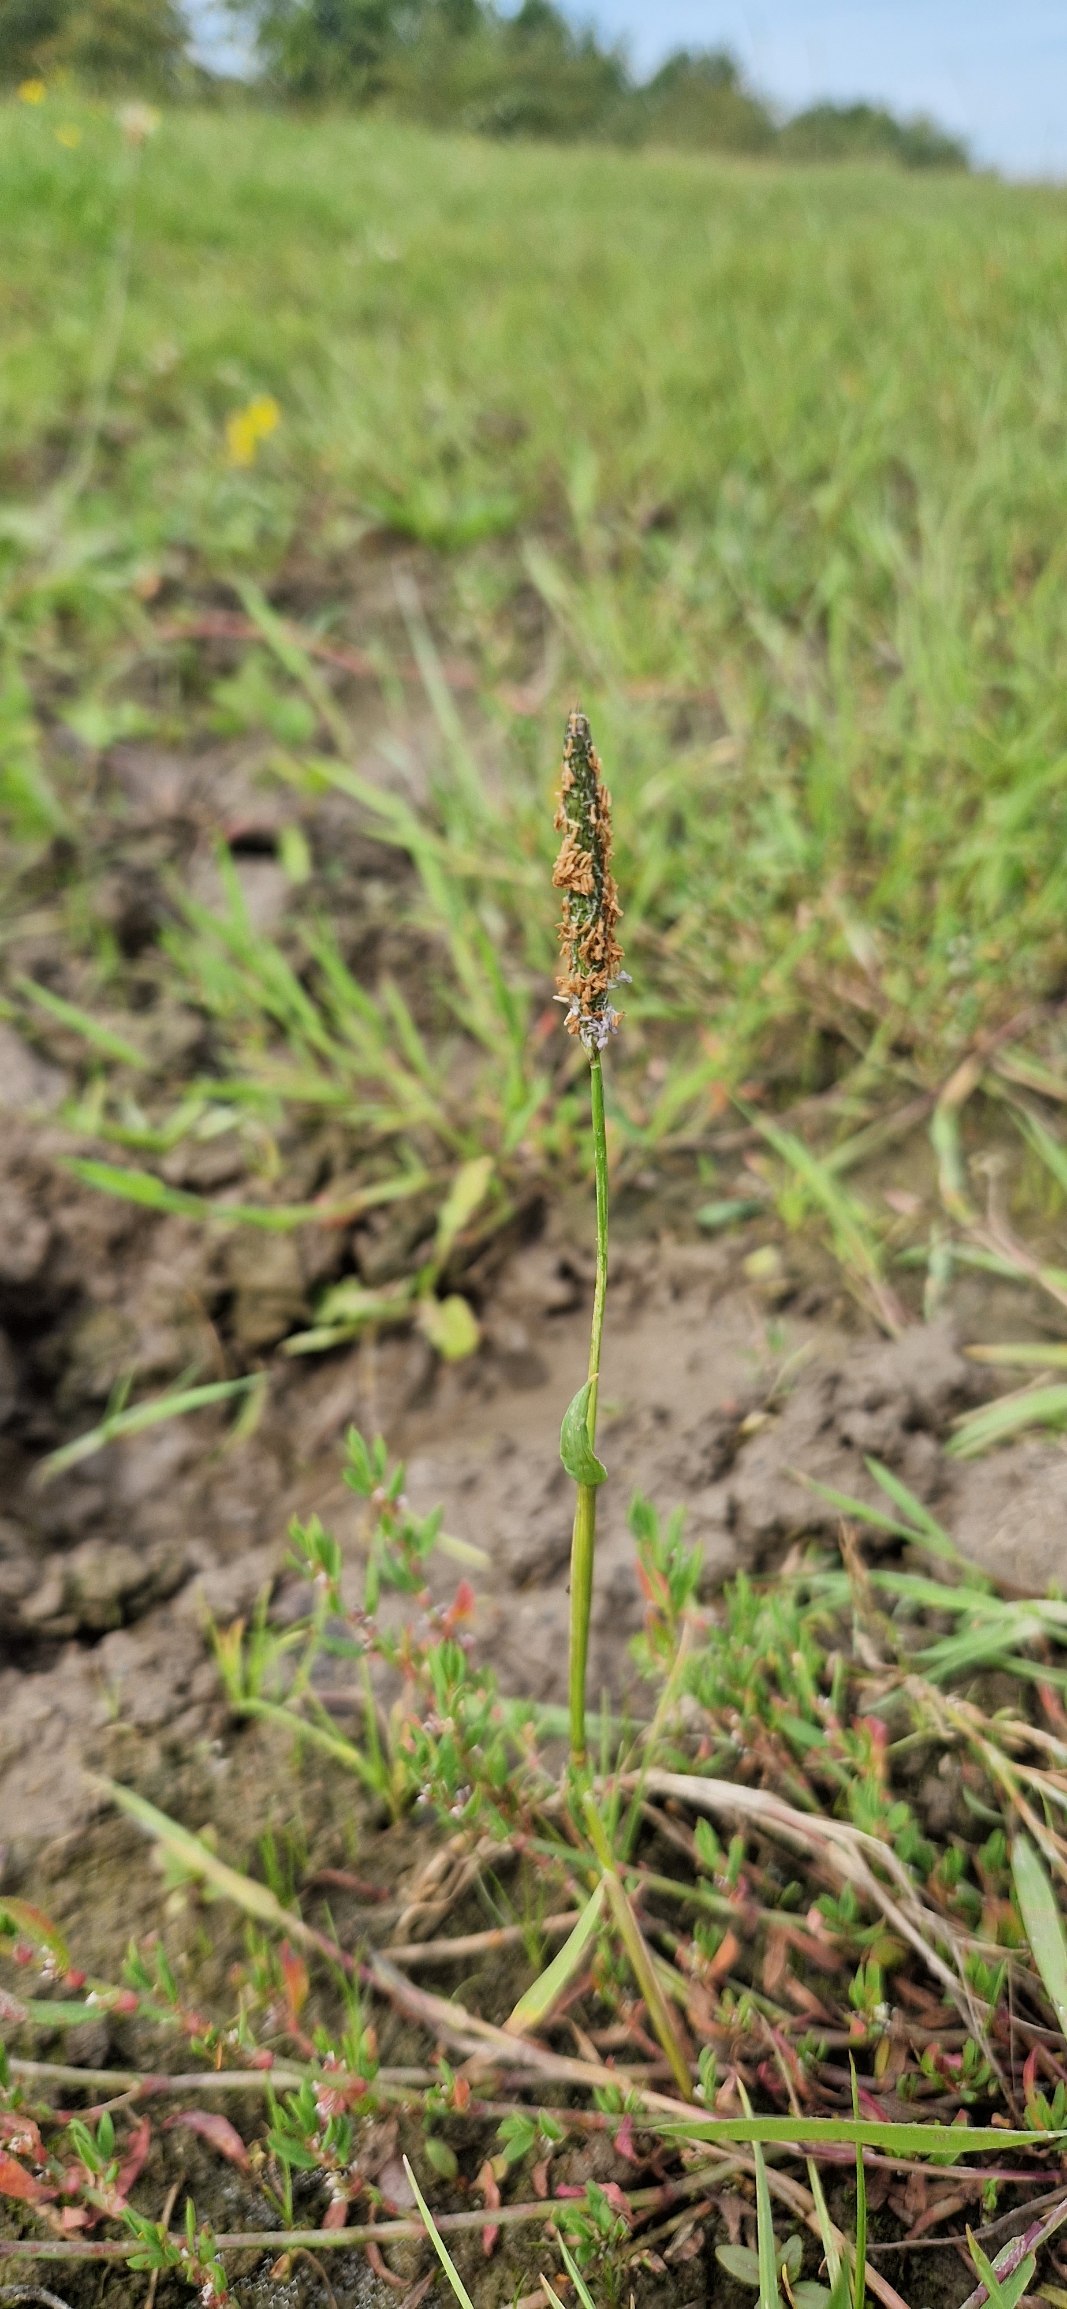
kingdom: Plantae
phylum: Tracheophyta
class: Liliopsida
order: Poales
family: Poaceae
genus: Alopecurus
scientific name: Alopecurus geniculatus
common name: Knæbøjet rævehale
